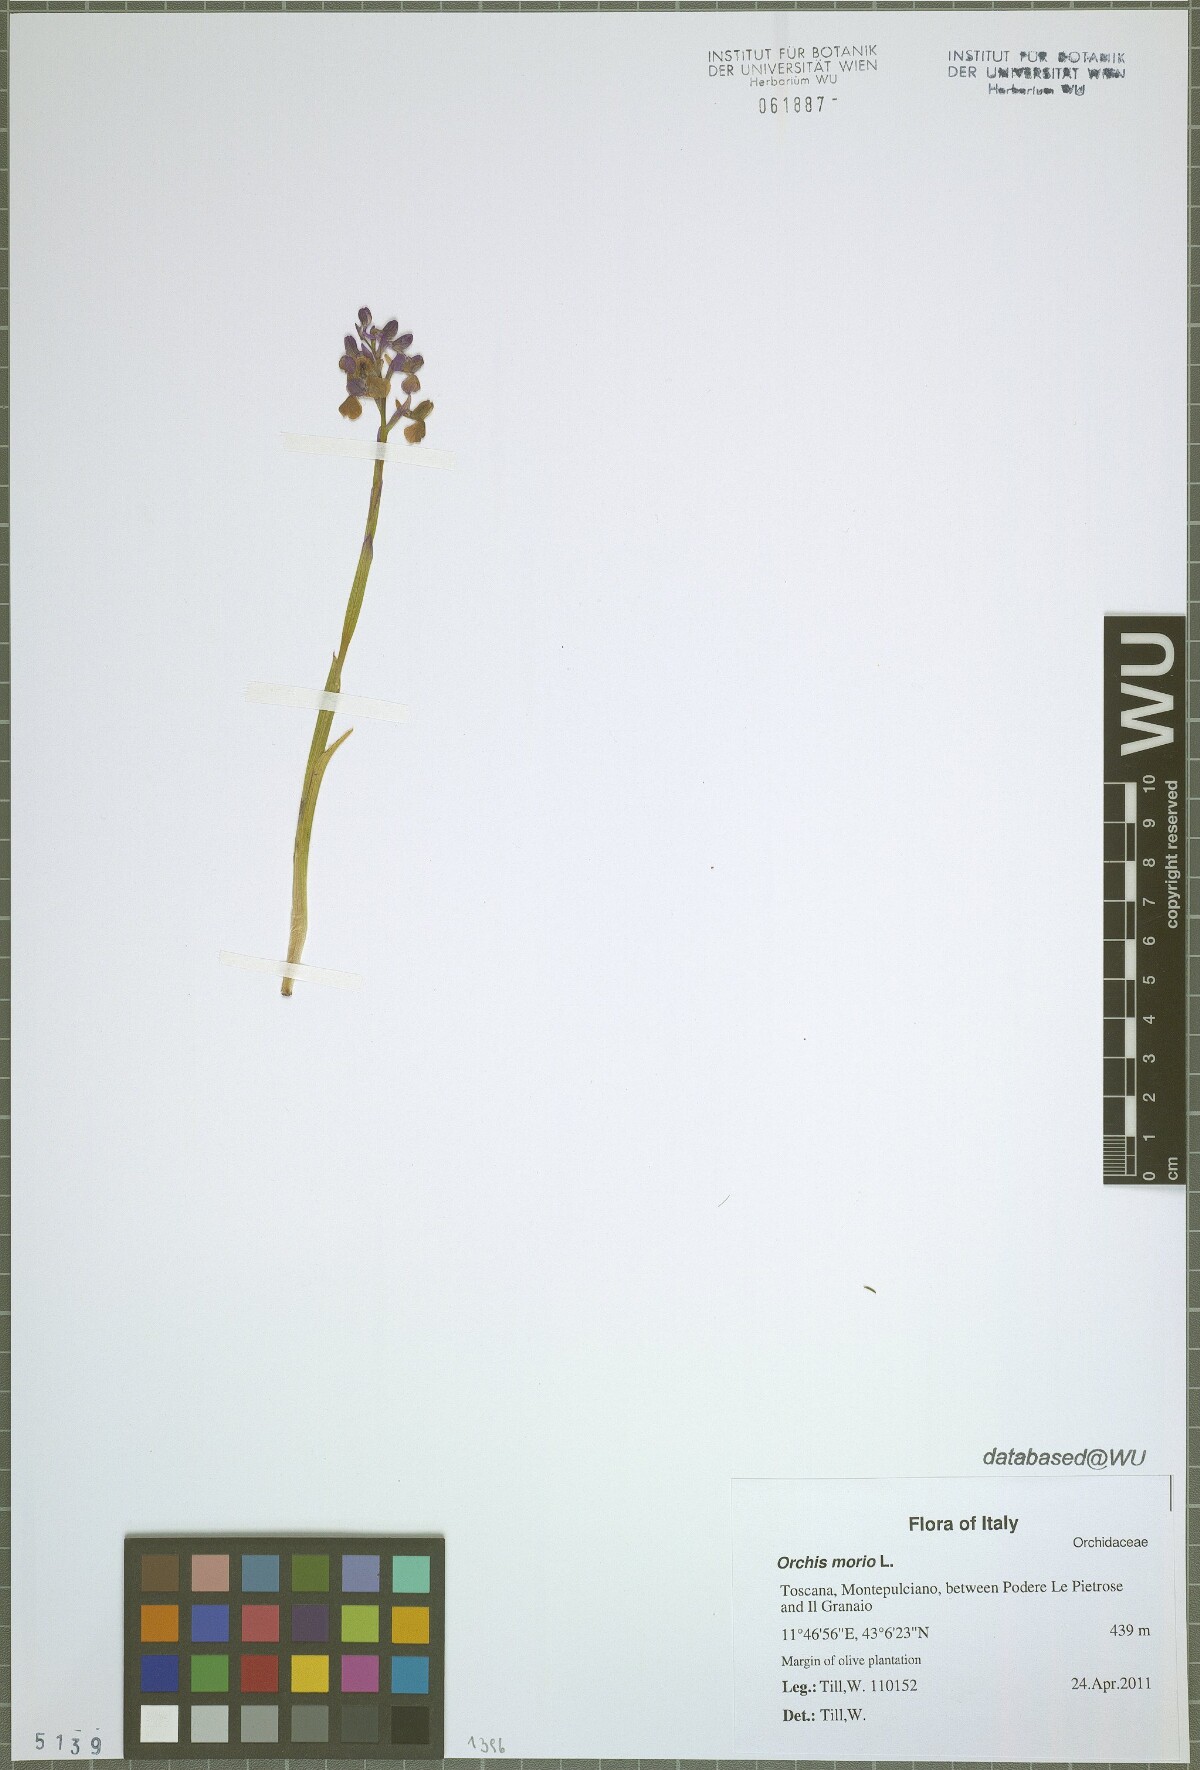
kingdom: Plantae
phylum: Tracheophyta
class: Liliopsida
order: Asparagales
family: Orchidaceae
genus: Anacamptis
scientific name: Anacamptis morio
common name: Green-winged orchid
